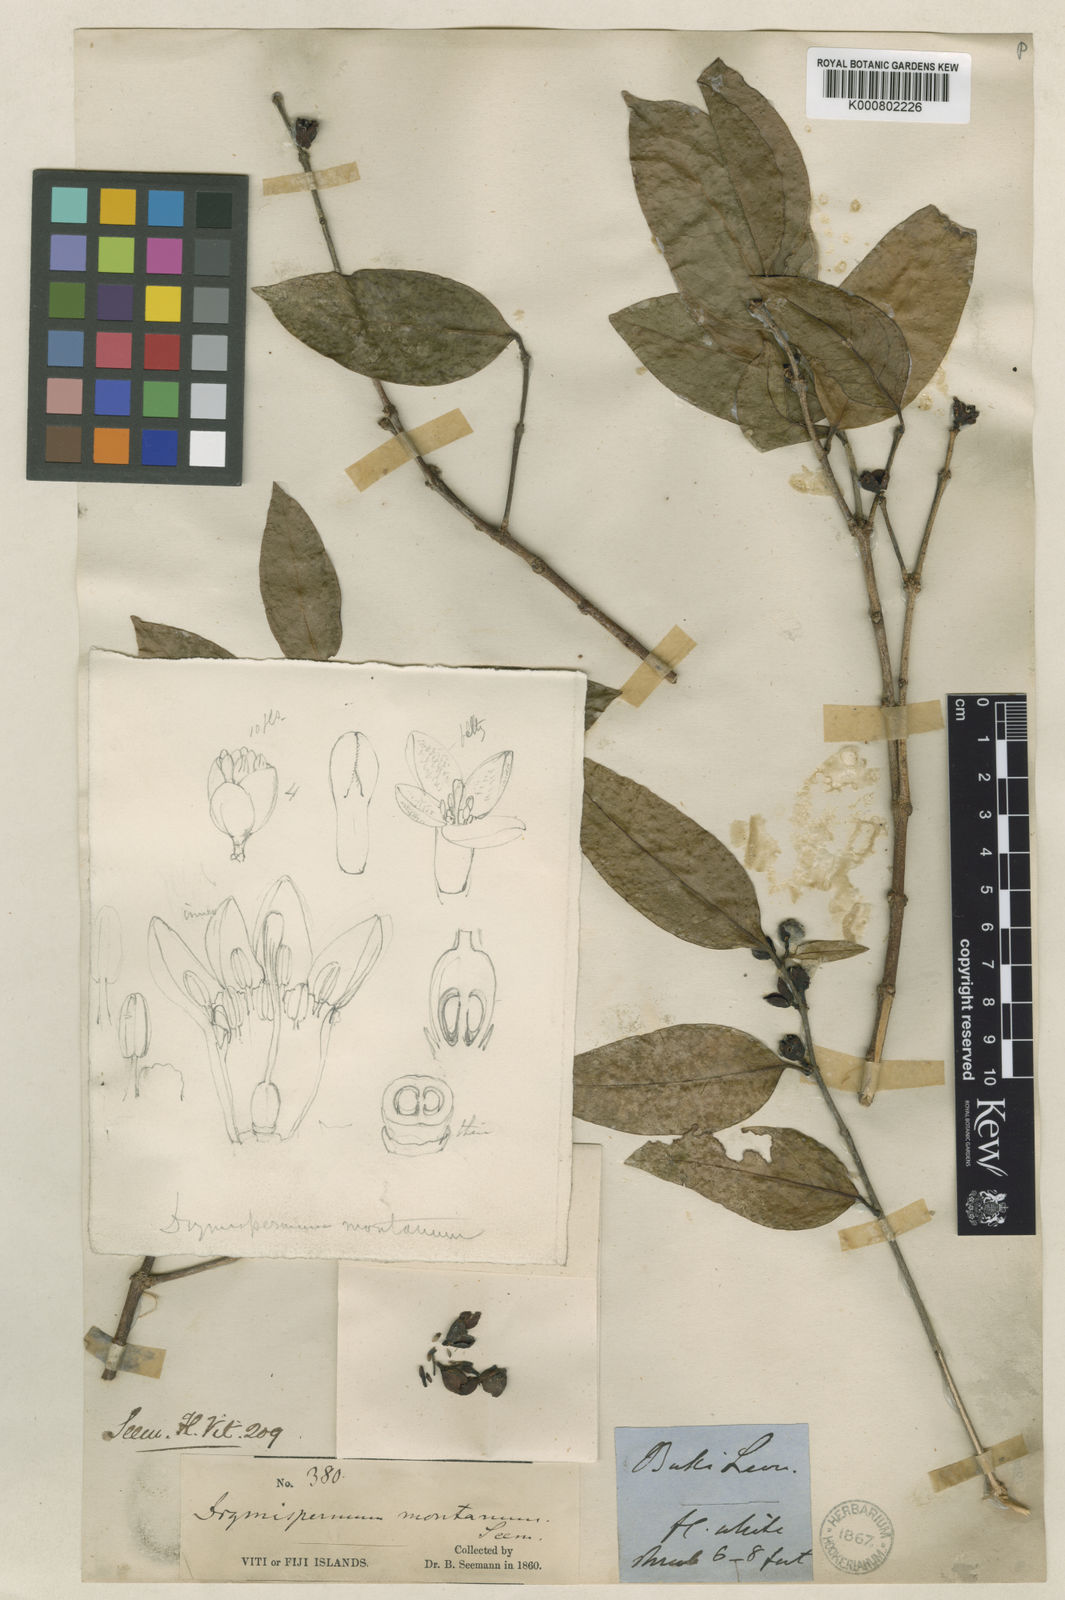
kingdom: Plantae
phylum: Tracheophyta
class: Magnoliopsida
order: Malvales
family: Thymelaeaceae
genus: Phaleria
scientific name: Phaleria montana
